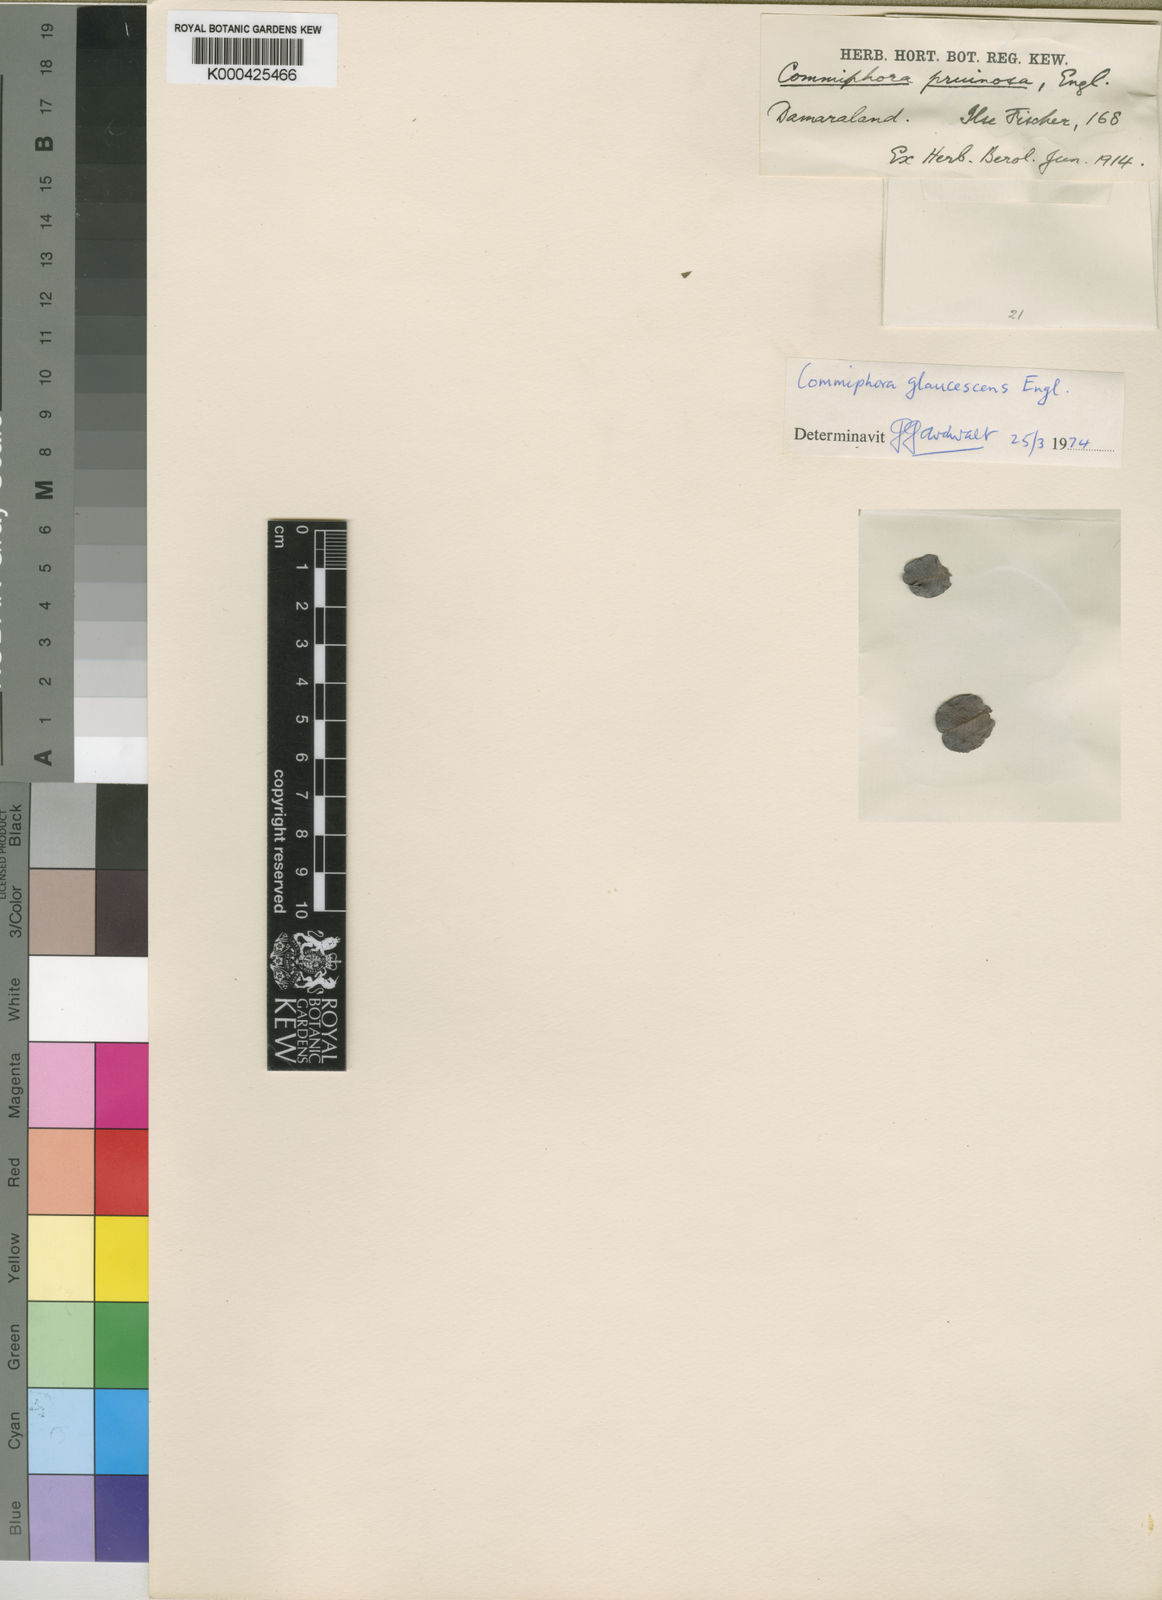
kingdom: Plantae
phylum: Tracheophyta
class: Magnoliopsida
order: Sapindales
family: Burseraceae
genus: Commiphora
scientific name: Commiphora glaucescens
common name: Blue-leaved corkwood
